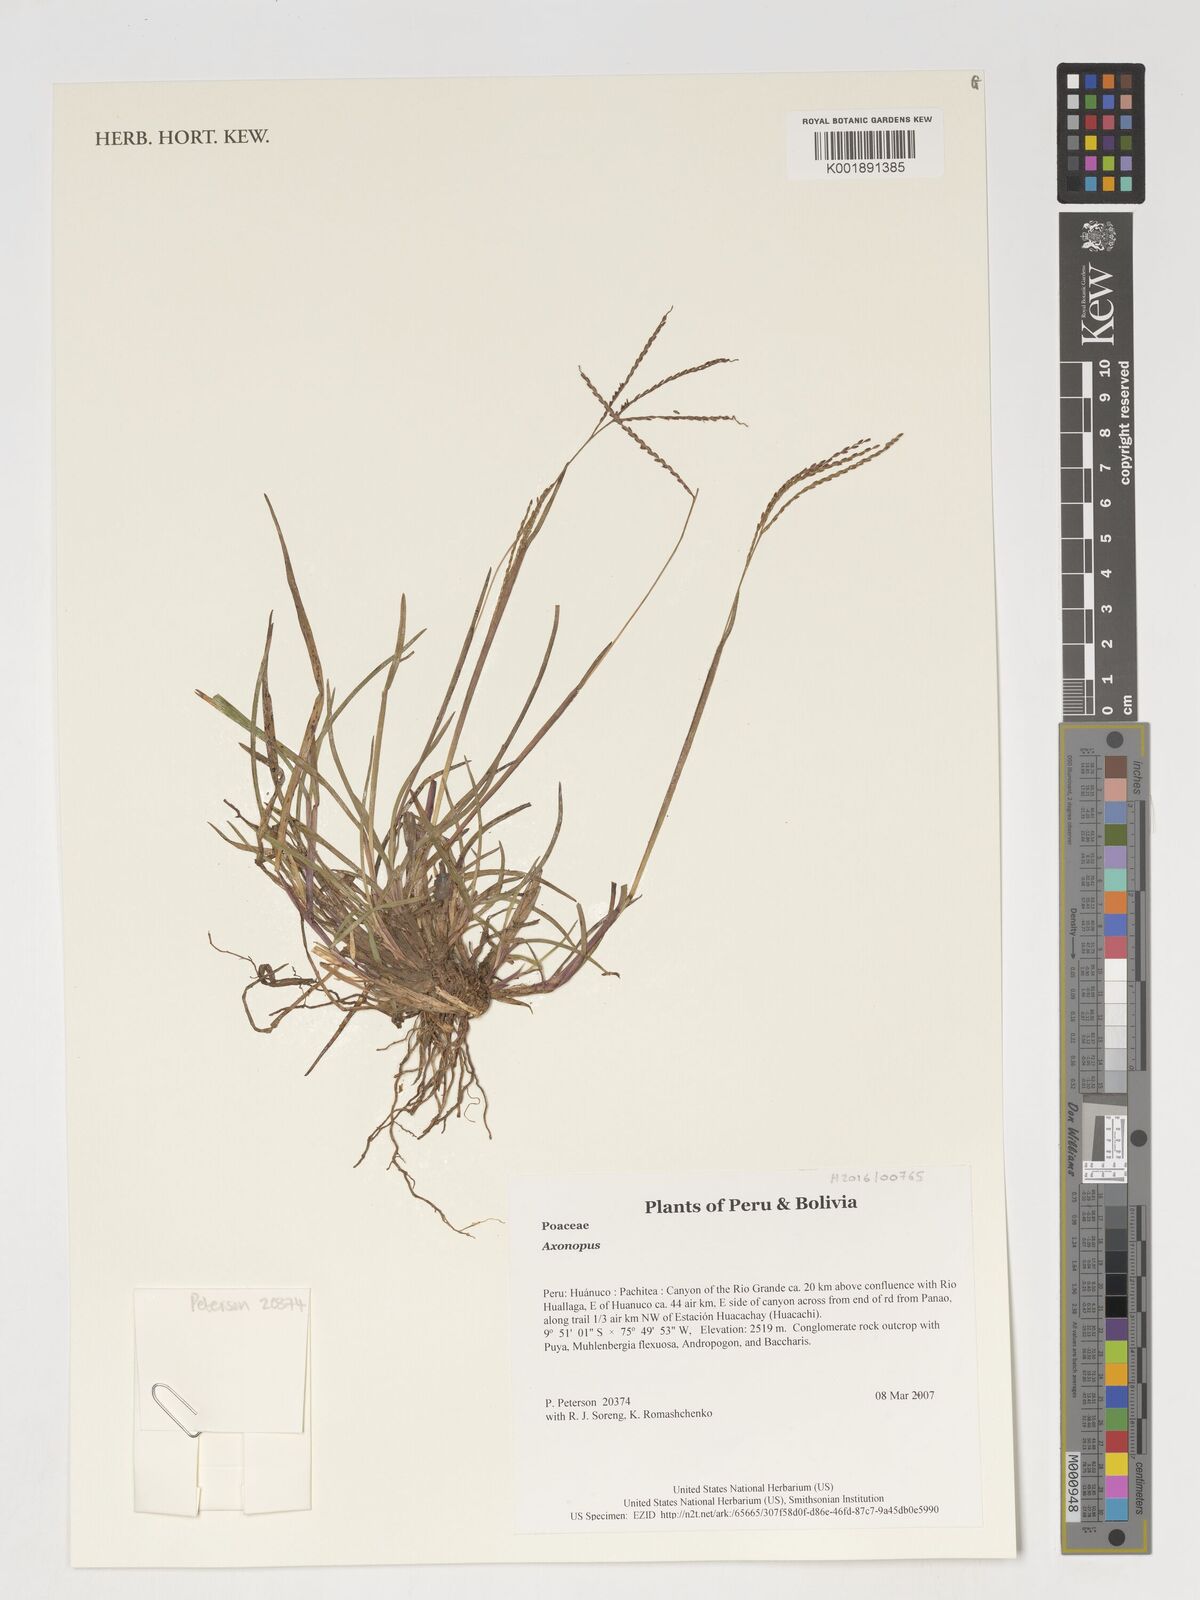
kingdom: Plantae
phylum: Tracheophyta
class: Liliopsida
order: Poales
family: Poaceae
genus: Axonopus
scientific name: Axonopus
